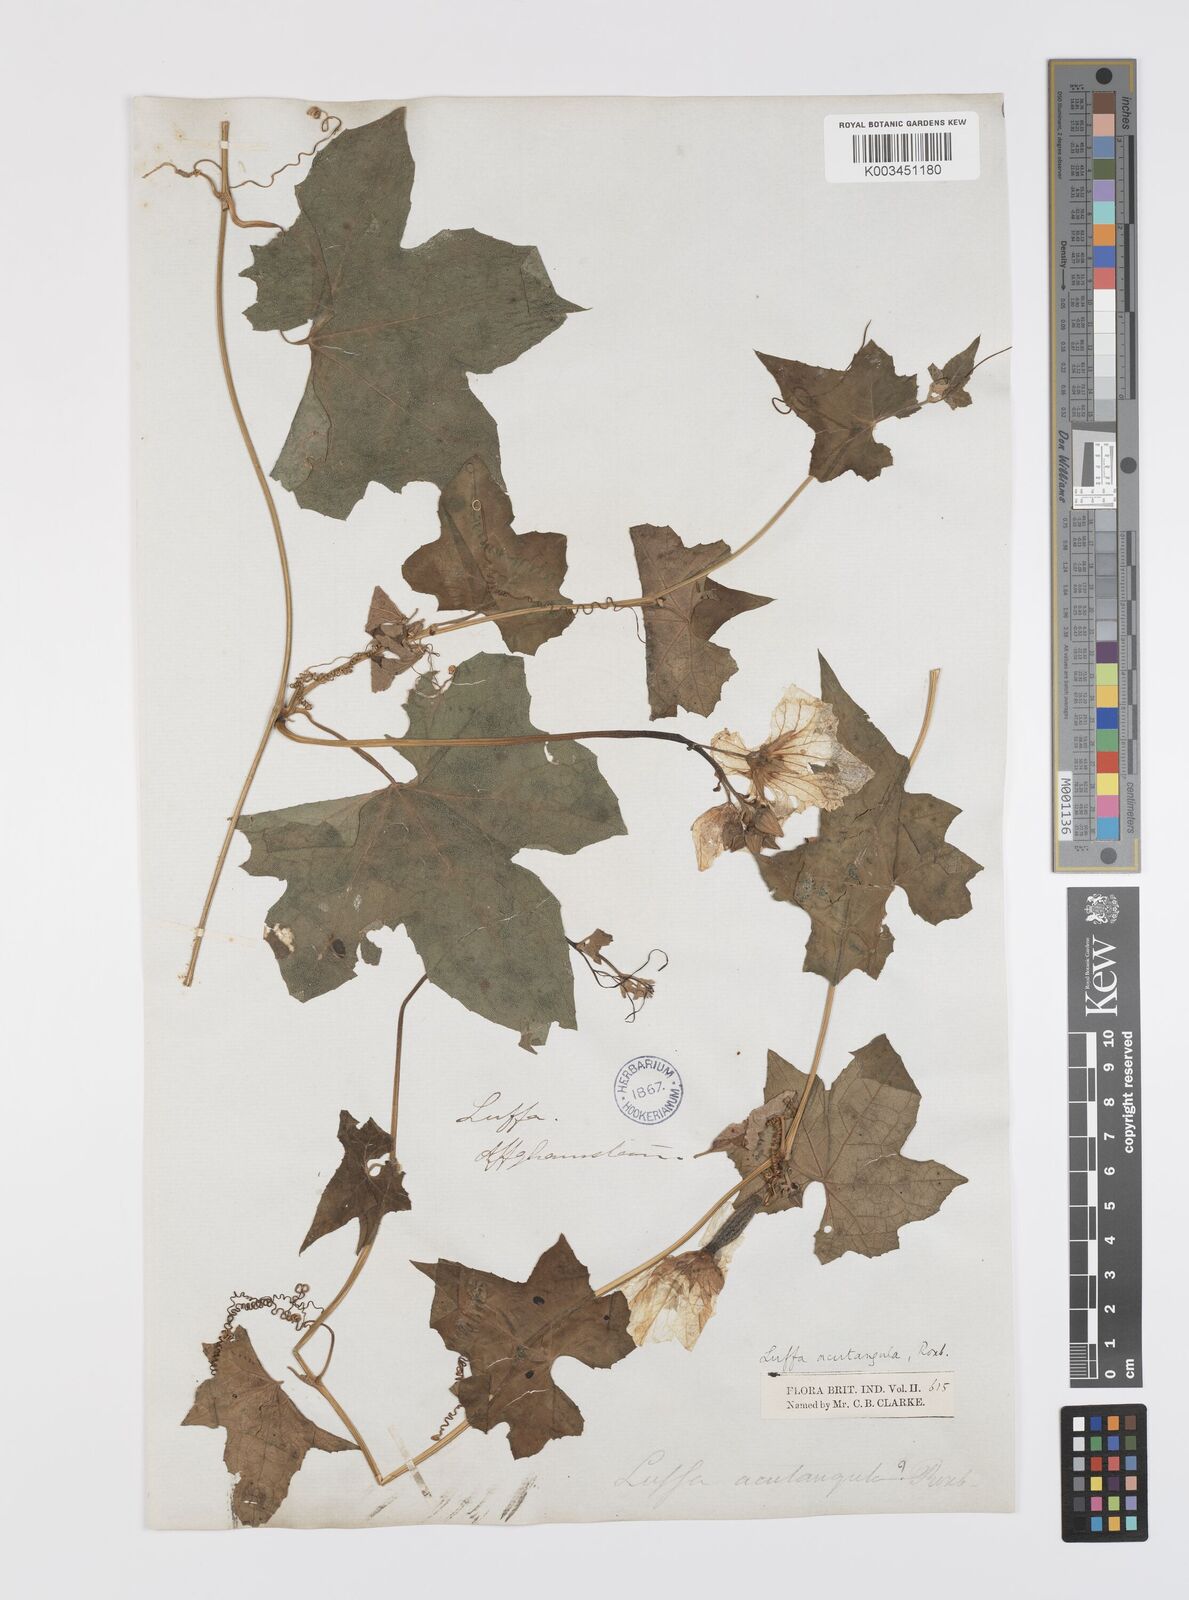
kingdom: Plantae
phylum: Tracheophyta
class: Magnoliopsida
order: Cucurbitales
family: Cucurbitaceae
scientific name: Cucurbitaceae
